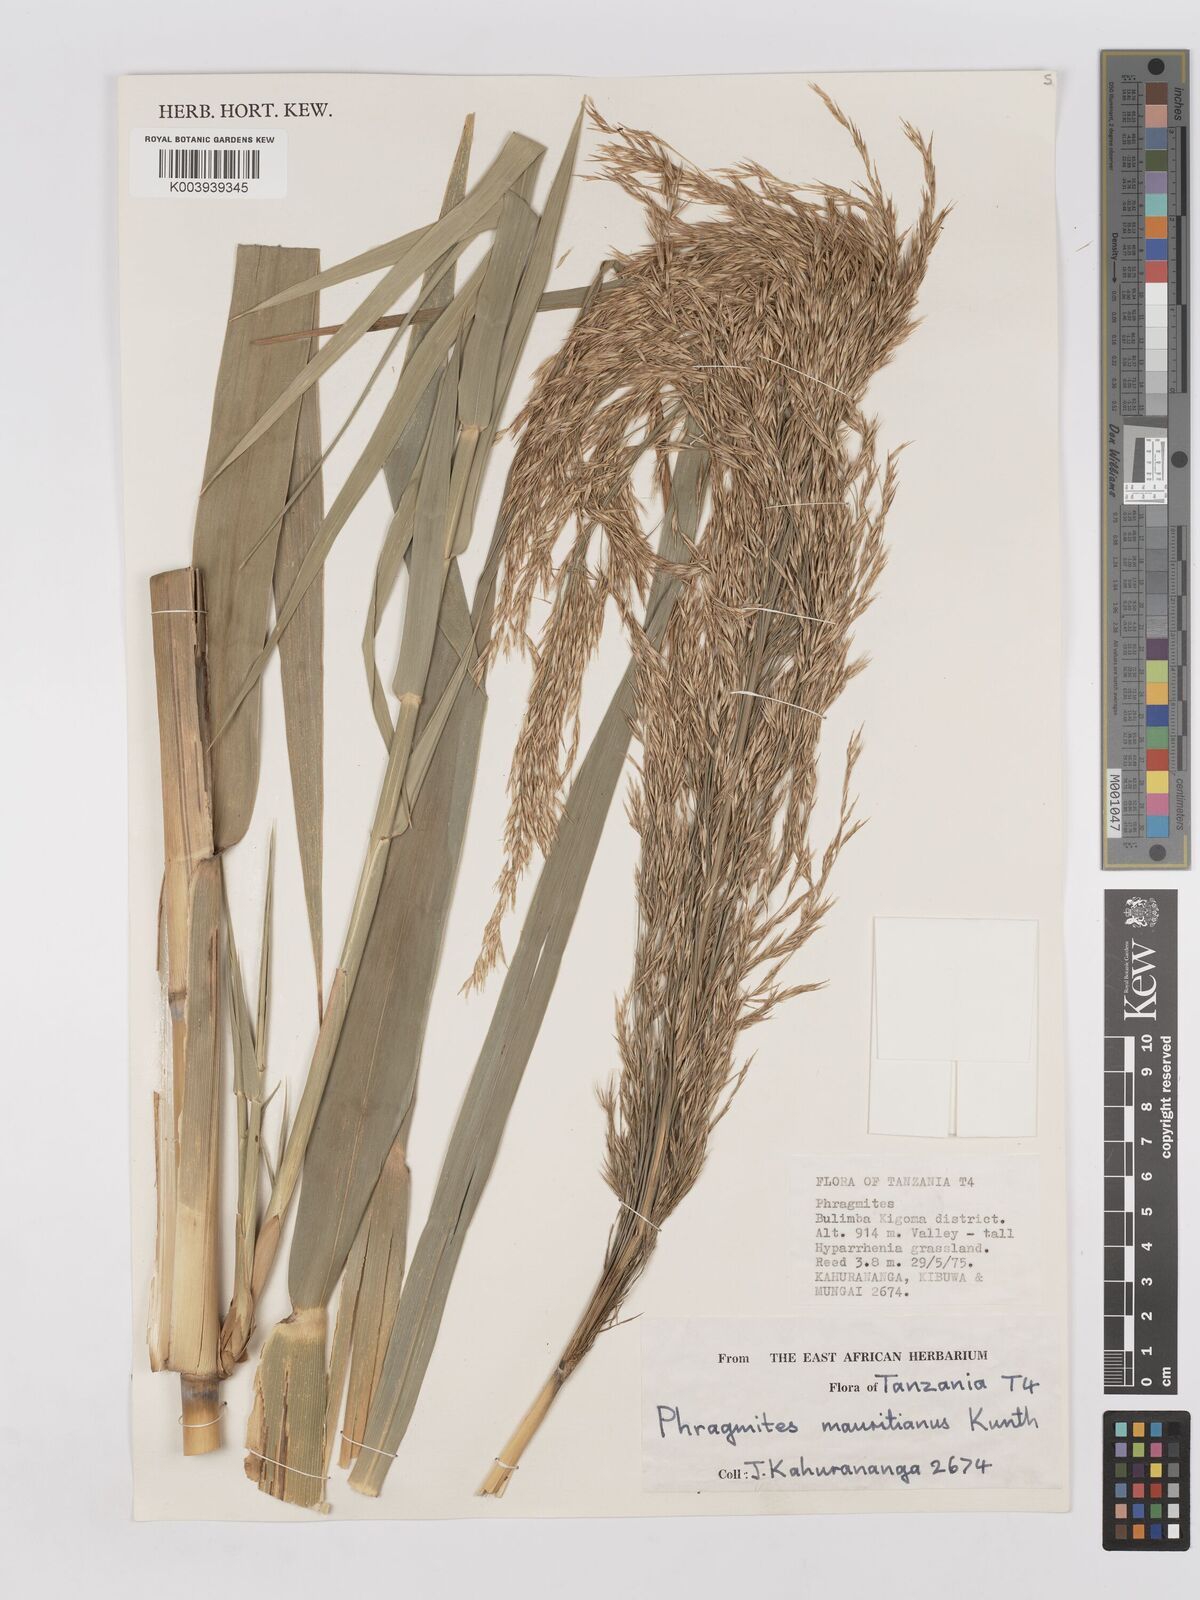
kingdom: Plantae
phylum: Tracheophyta
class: Liliopsida
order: Poales
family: Poaceae
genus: Phragmites
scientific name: Phragmites mauritianus
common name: Reed grass
